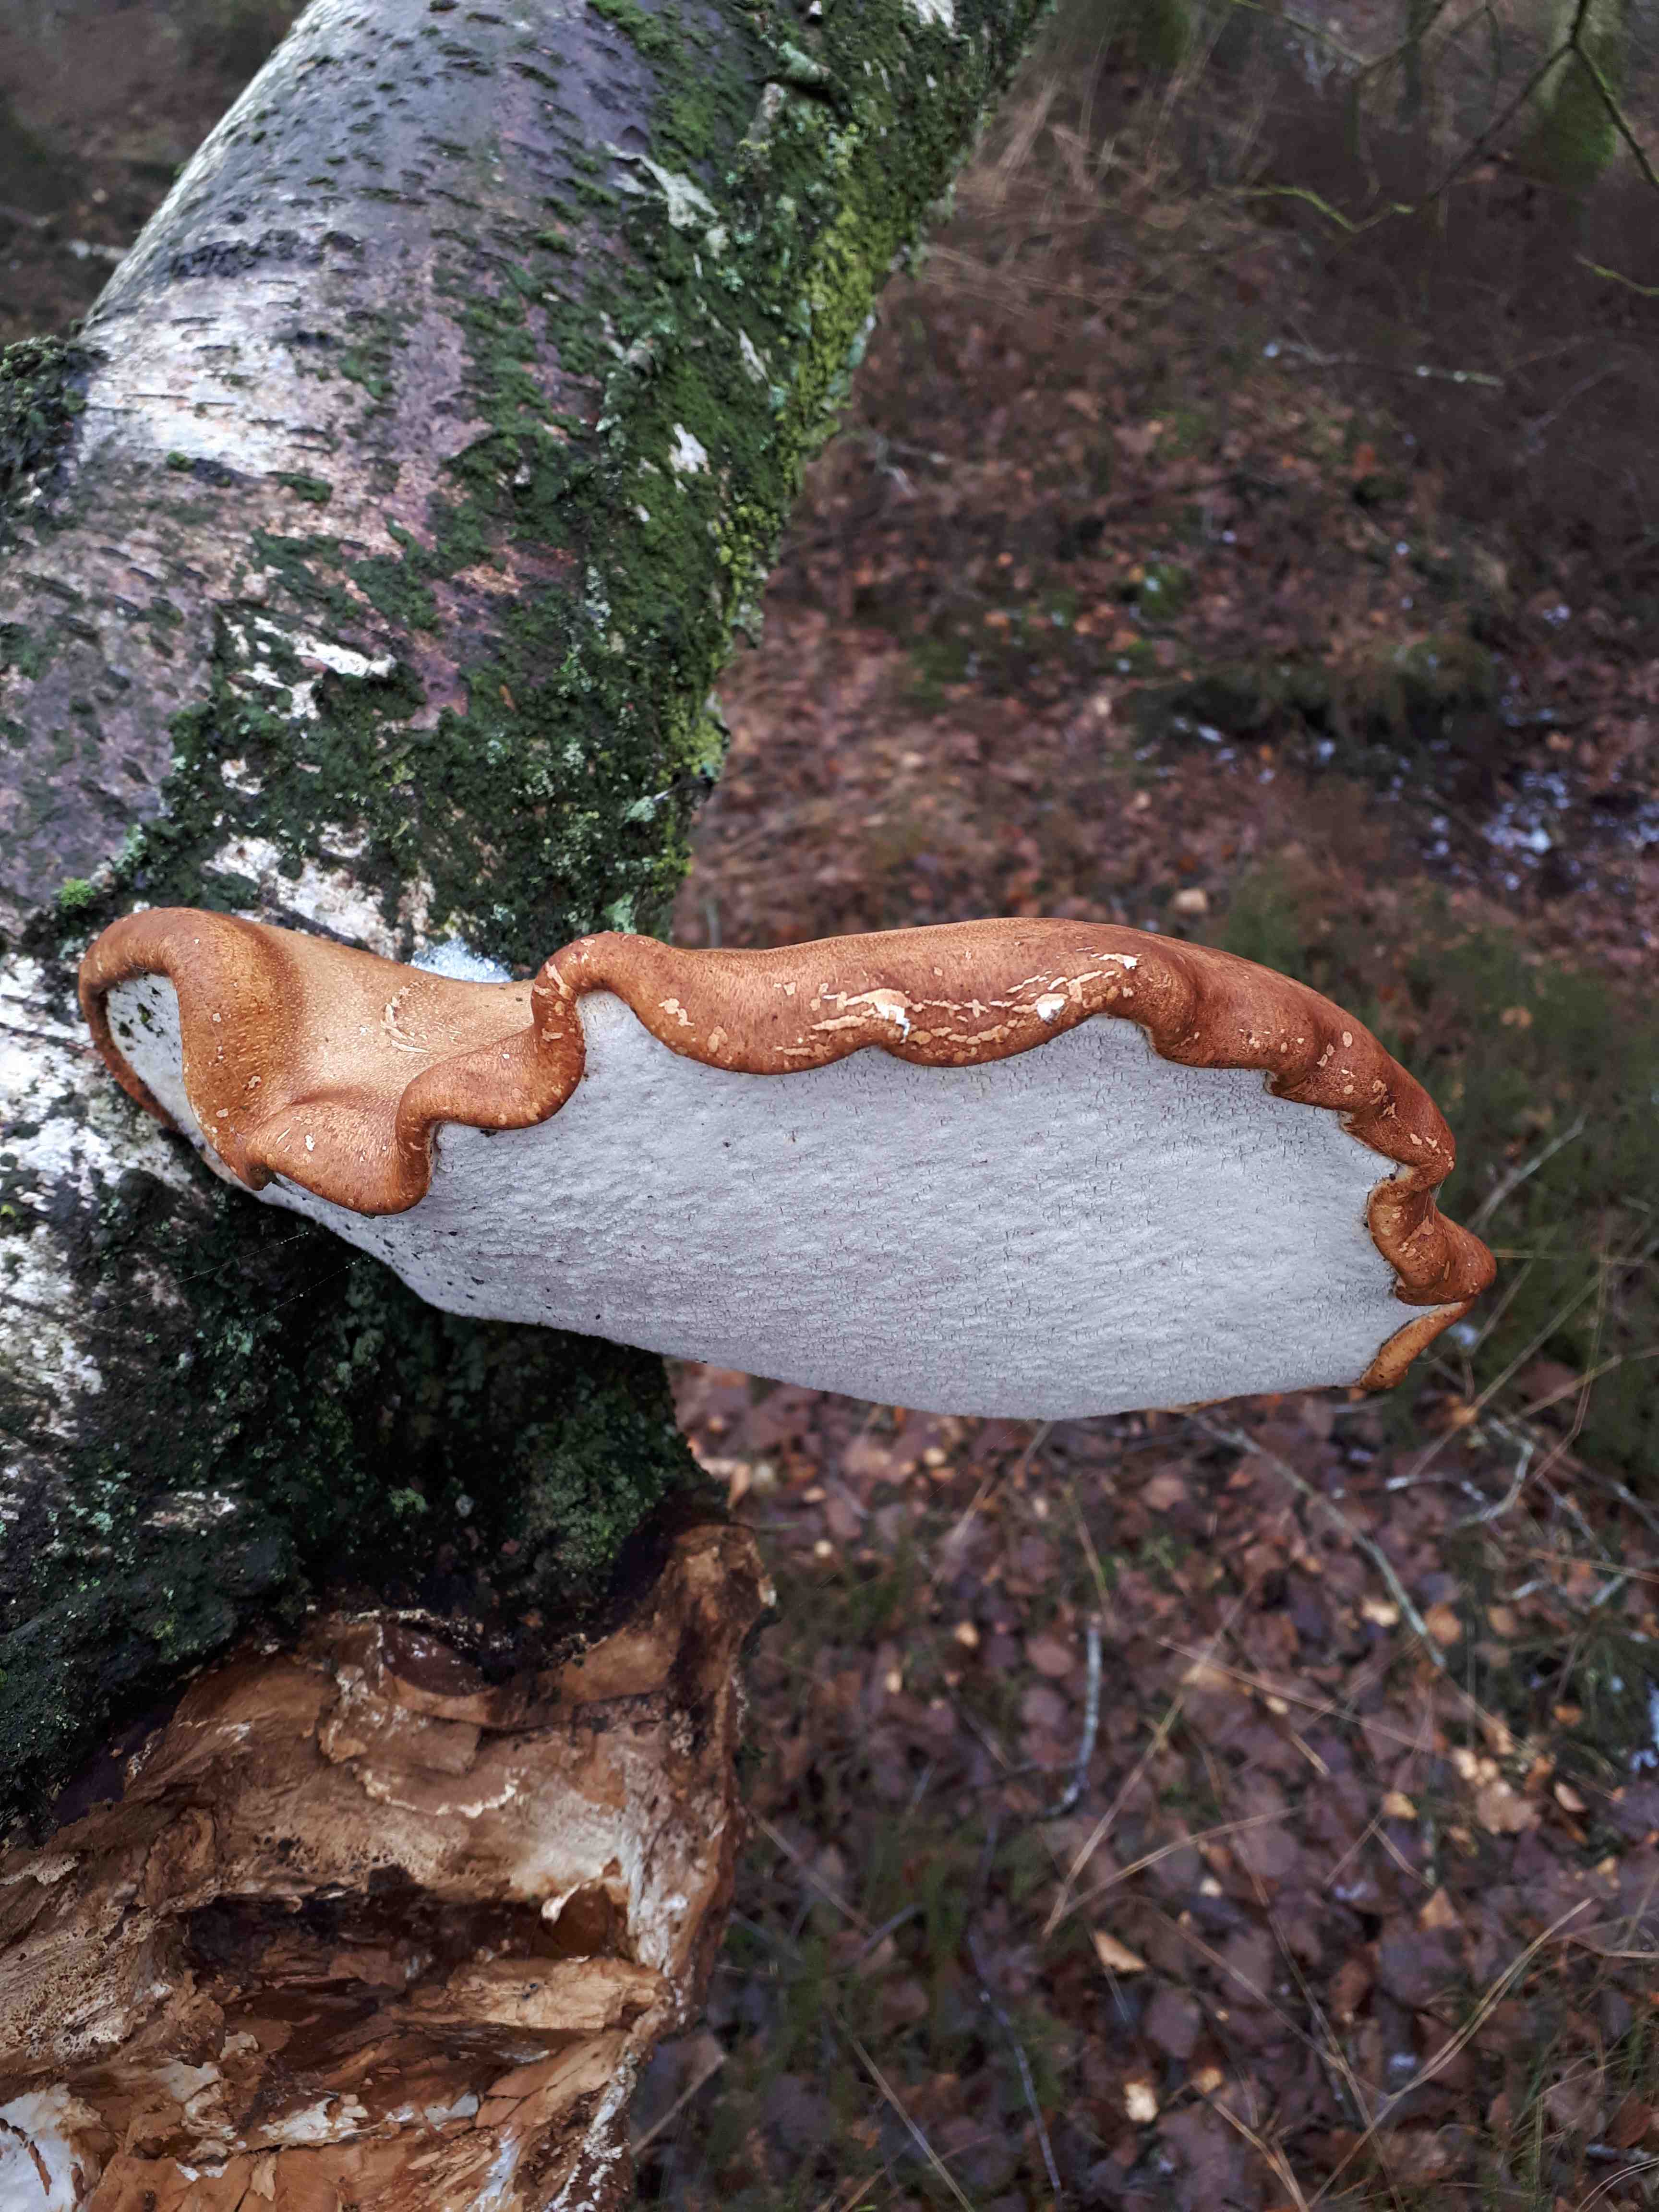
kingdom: Fungi
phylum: Basidiomycota
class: Agaricomycetes
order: Polyporales
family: Fomitopsidaceae
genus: Fomitopsis
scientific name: Fomitopsis betulina
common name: birkeporesvamp
